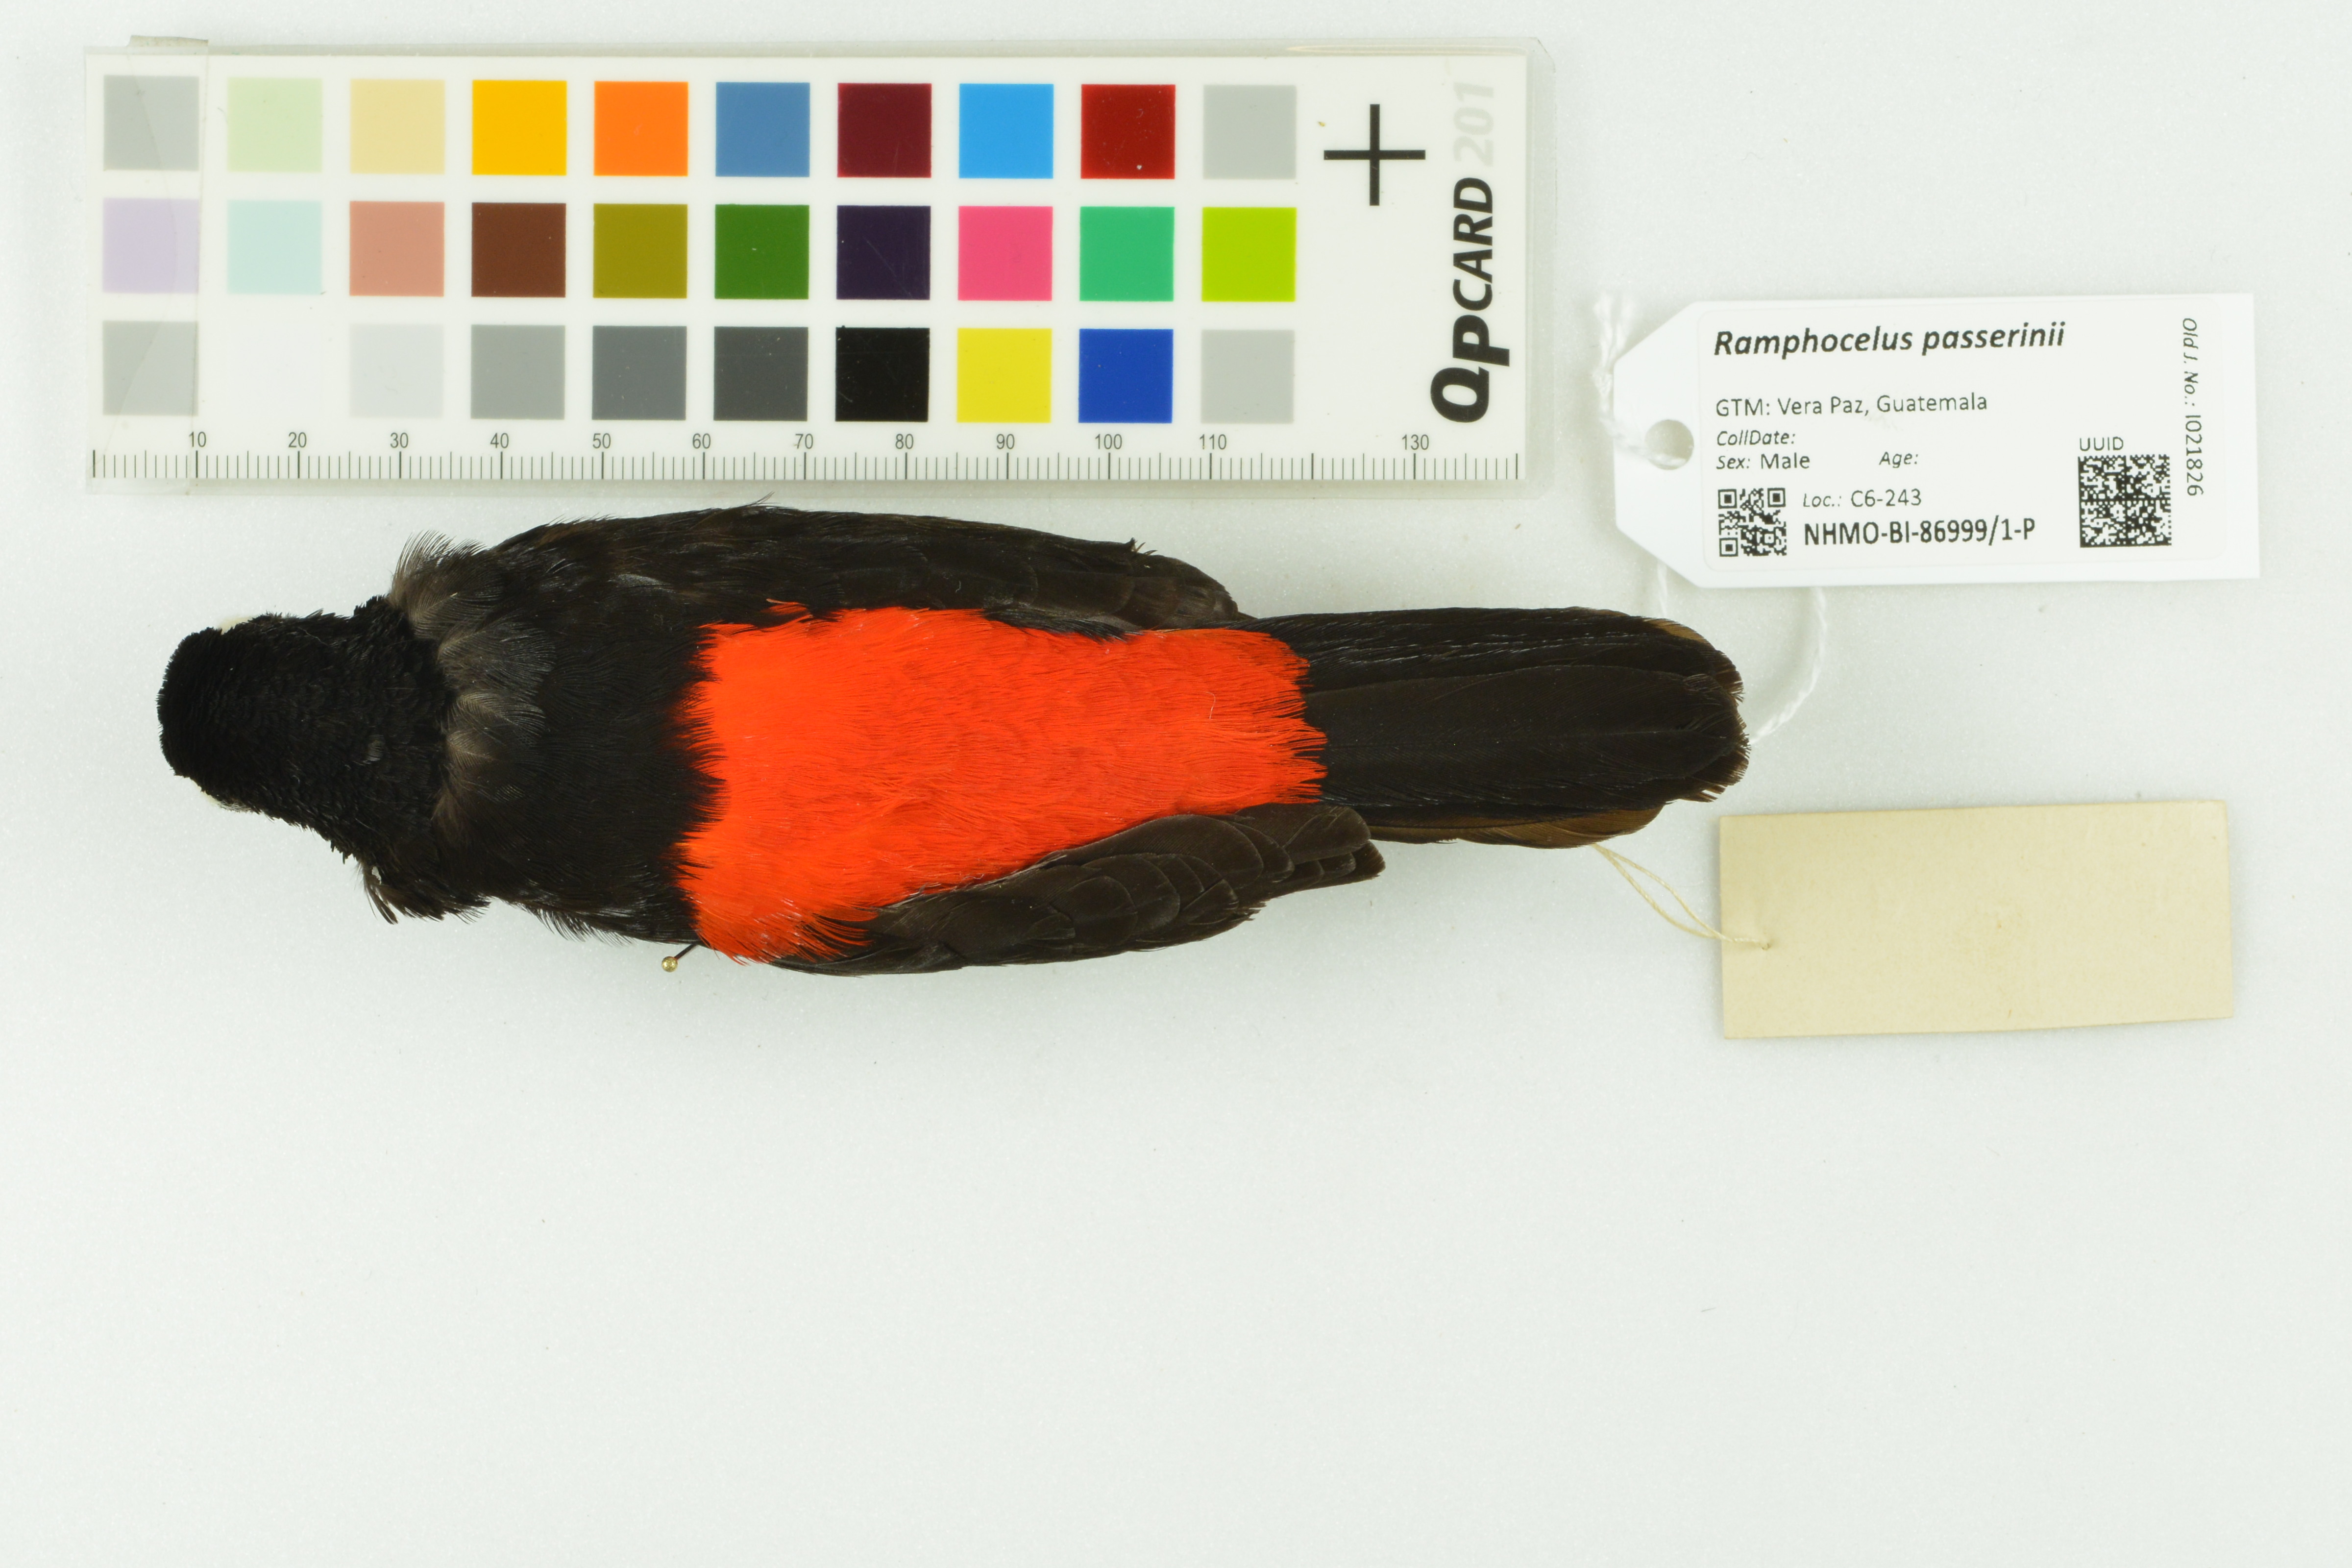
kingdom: Animalia
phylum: Chordata
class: Aves
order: Passeriformes
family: Thraupidae
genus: Ramphocelus
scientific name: Ramphocelus passerinii
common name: Passerini's tanager
